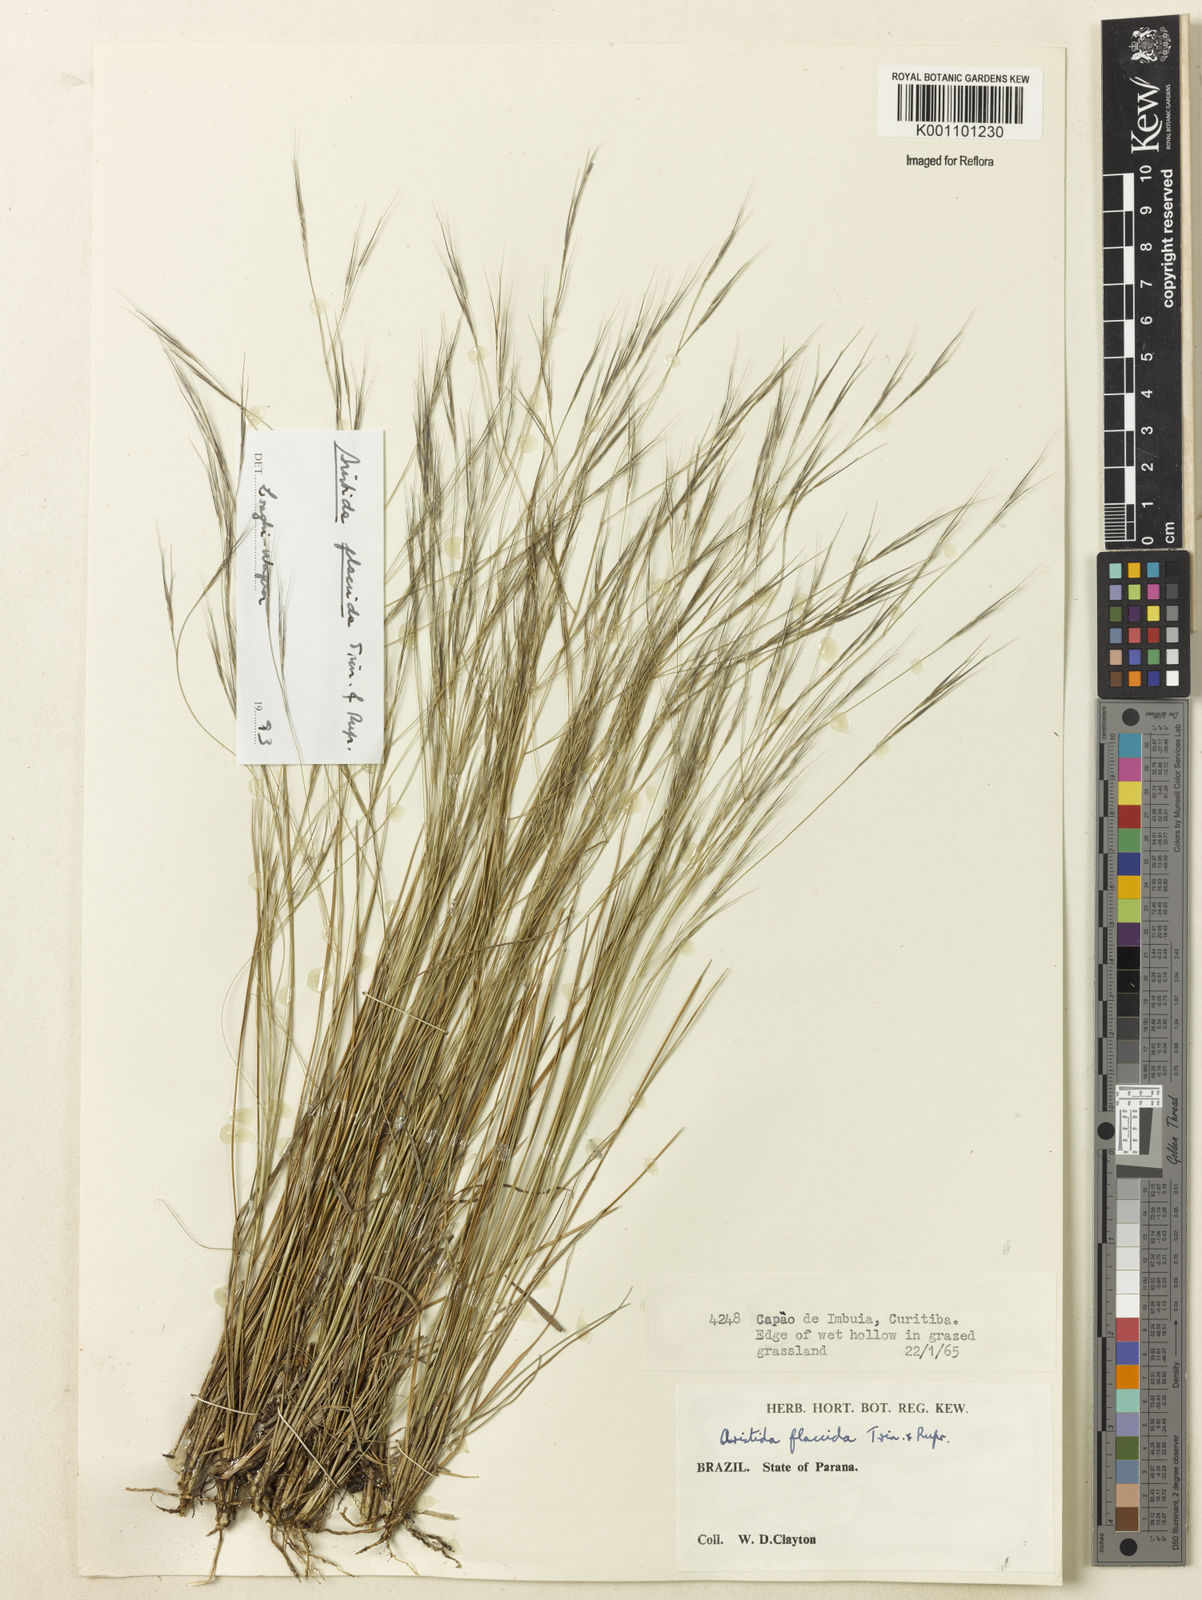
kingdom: Plantae
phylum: Tracheophyta
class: Liliopsida
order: Poales
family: Poaceae
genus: Aristida
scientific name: Aristida flaccida
